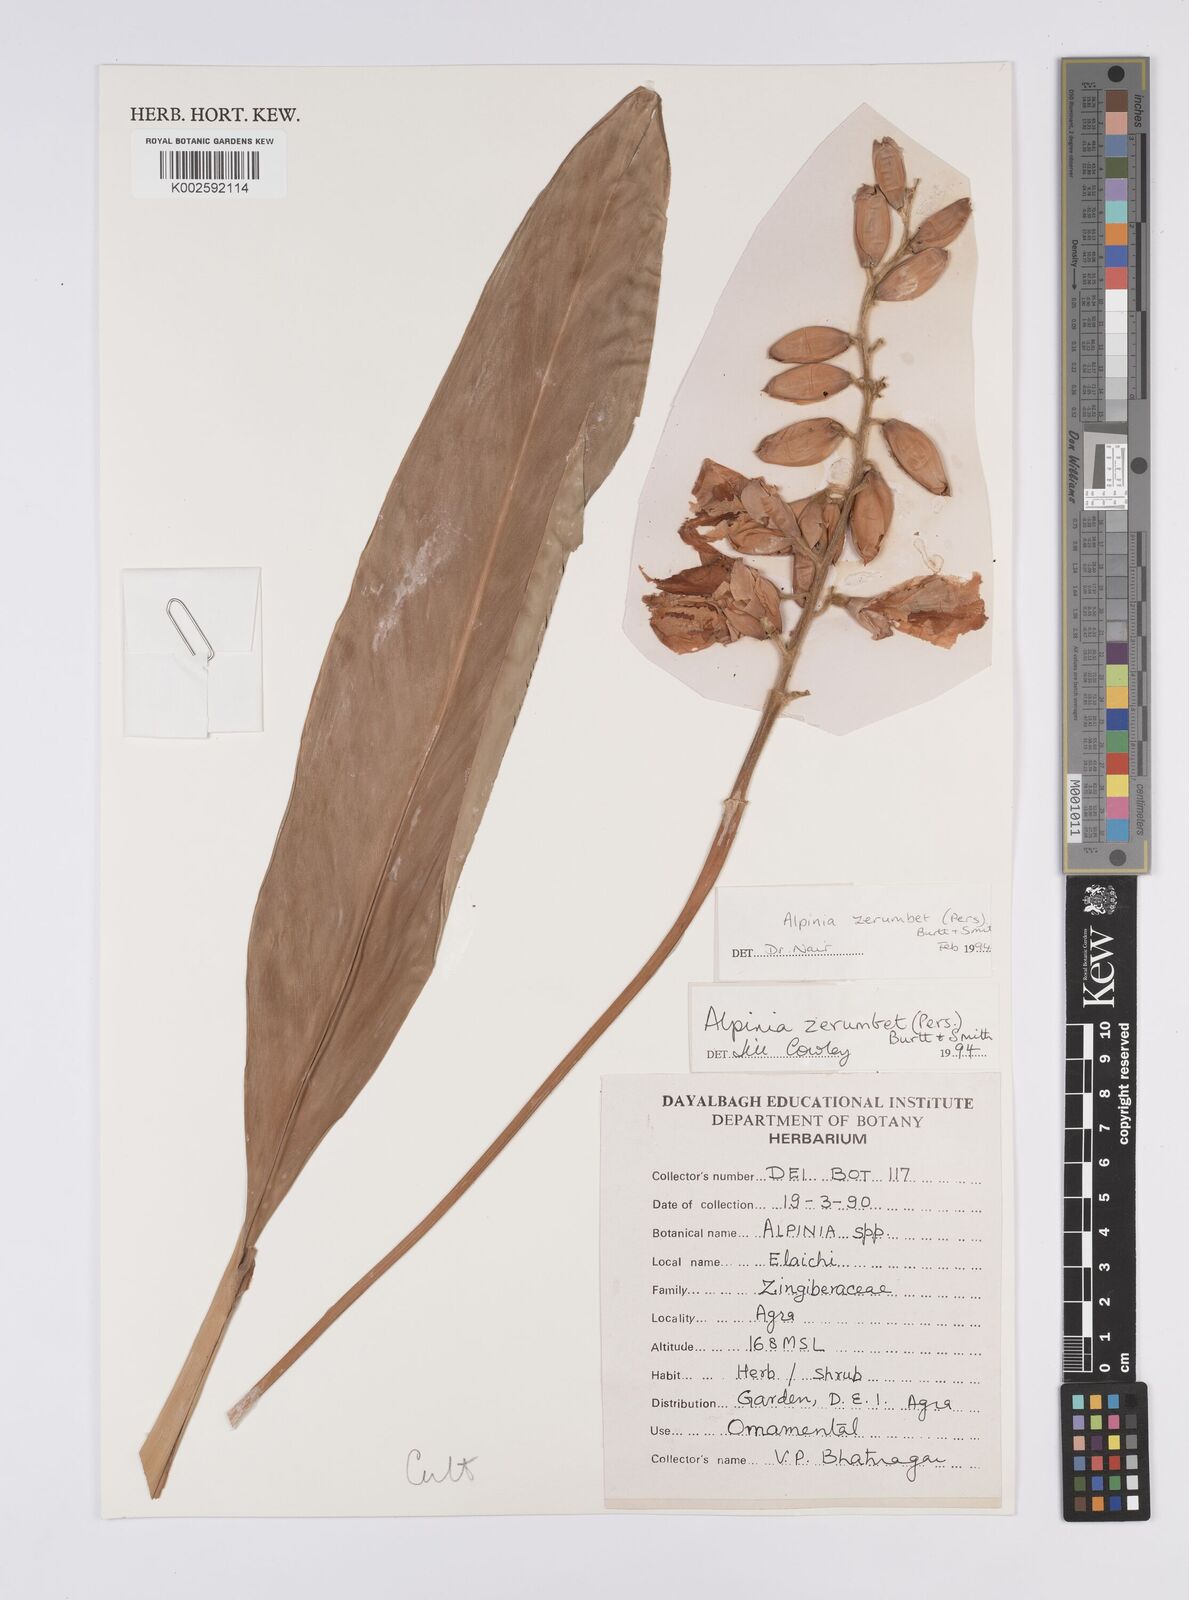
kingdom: Plantae
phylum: Tracheophyta
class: Liliopsida
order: Zingiberales
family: Zingiberaceae
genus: Alpinia
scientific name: Alpinia zerumbet
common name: Shellplant
